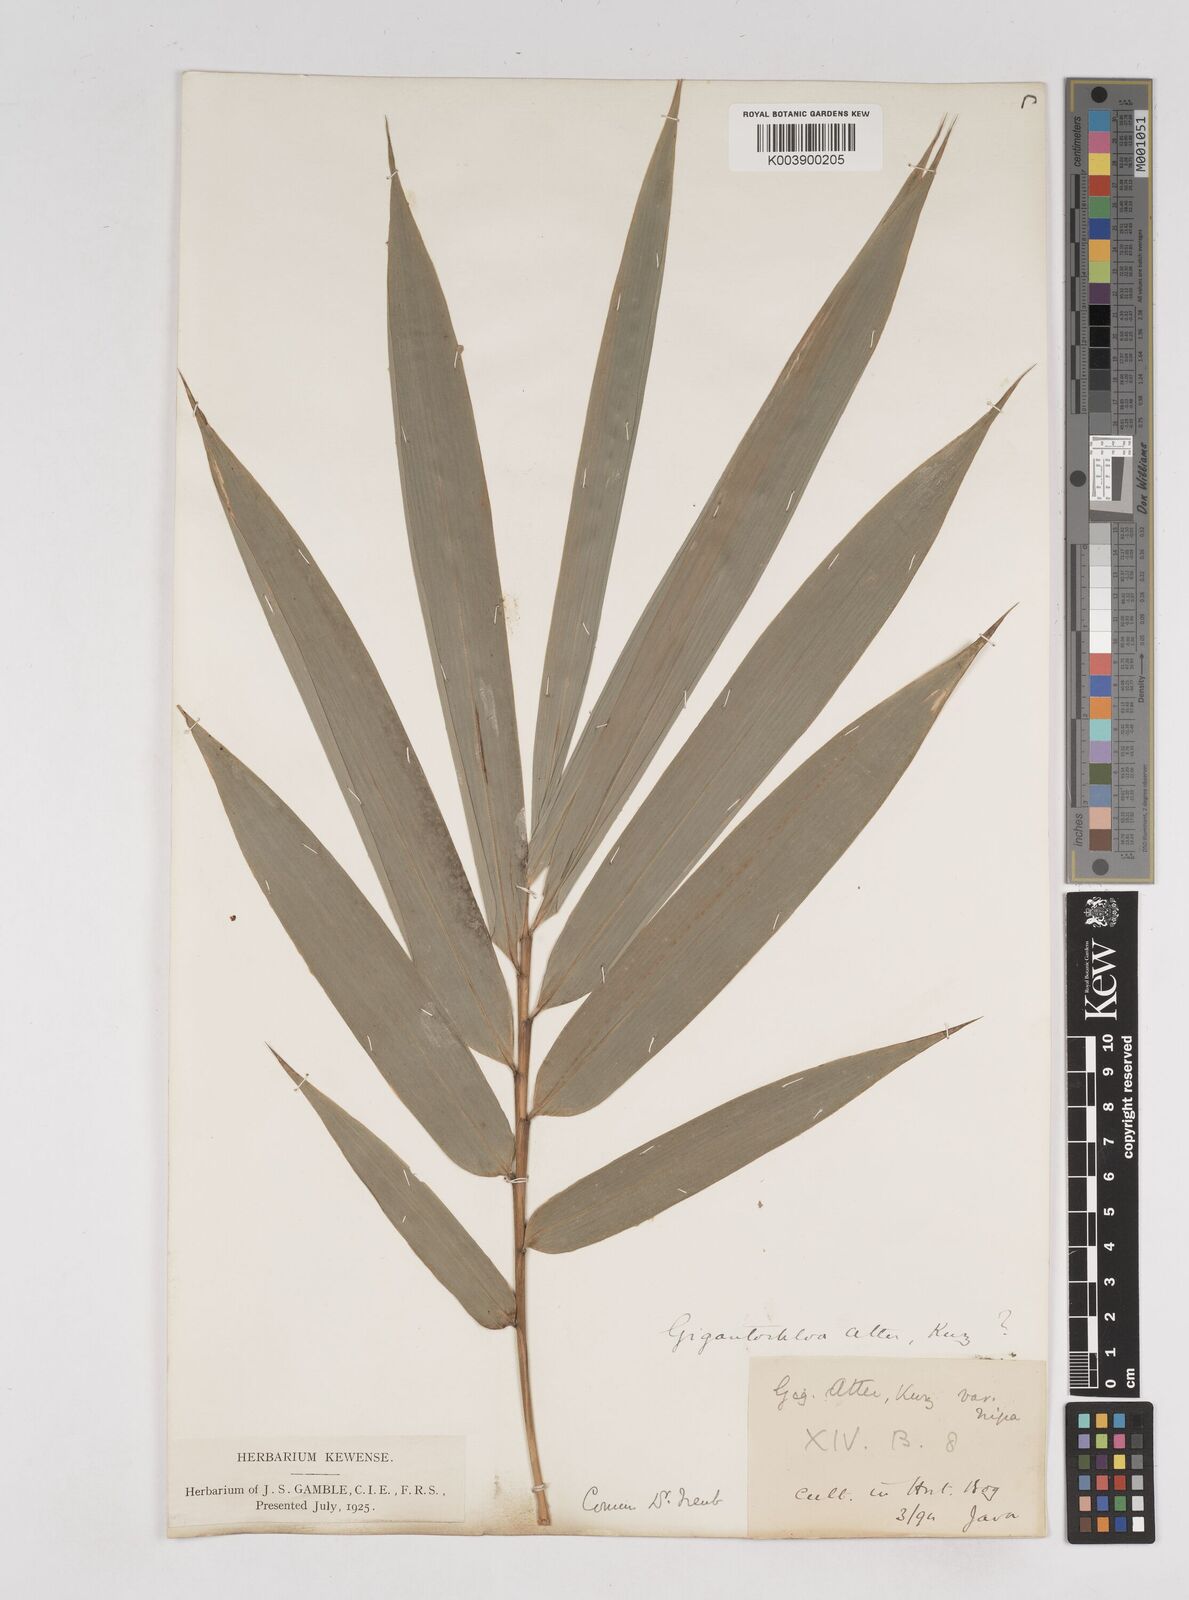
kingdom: Plantae
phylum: Tracheophyta
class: Liliopsida
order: Poales
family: Poaceae
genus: Gigantochloa
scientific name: Gigantochloa atter
